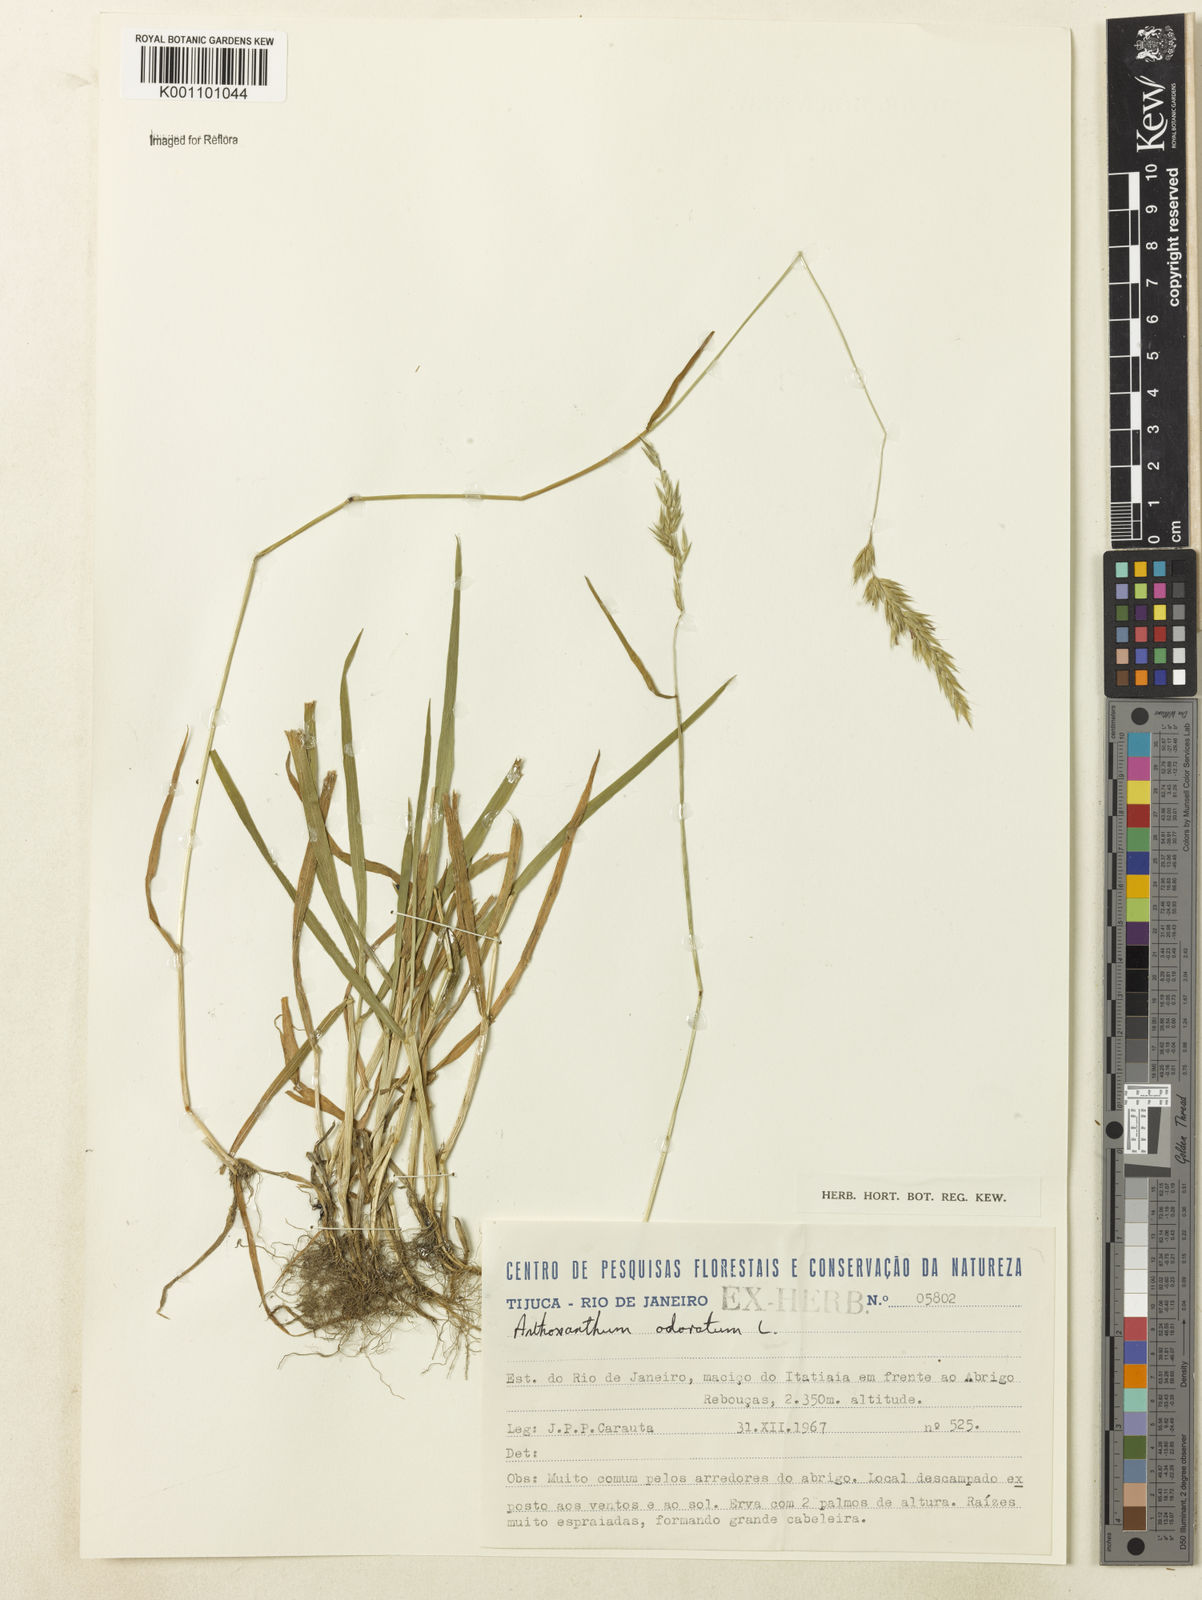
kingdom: Plantae
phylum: Tracheophyta
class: Liliopsida
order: Poales
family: Poaceae
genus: Anthoxanthum
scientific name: Anthoxanthum odoratum
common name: Sweet vernalgrass
